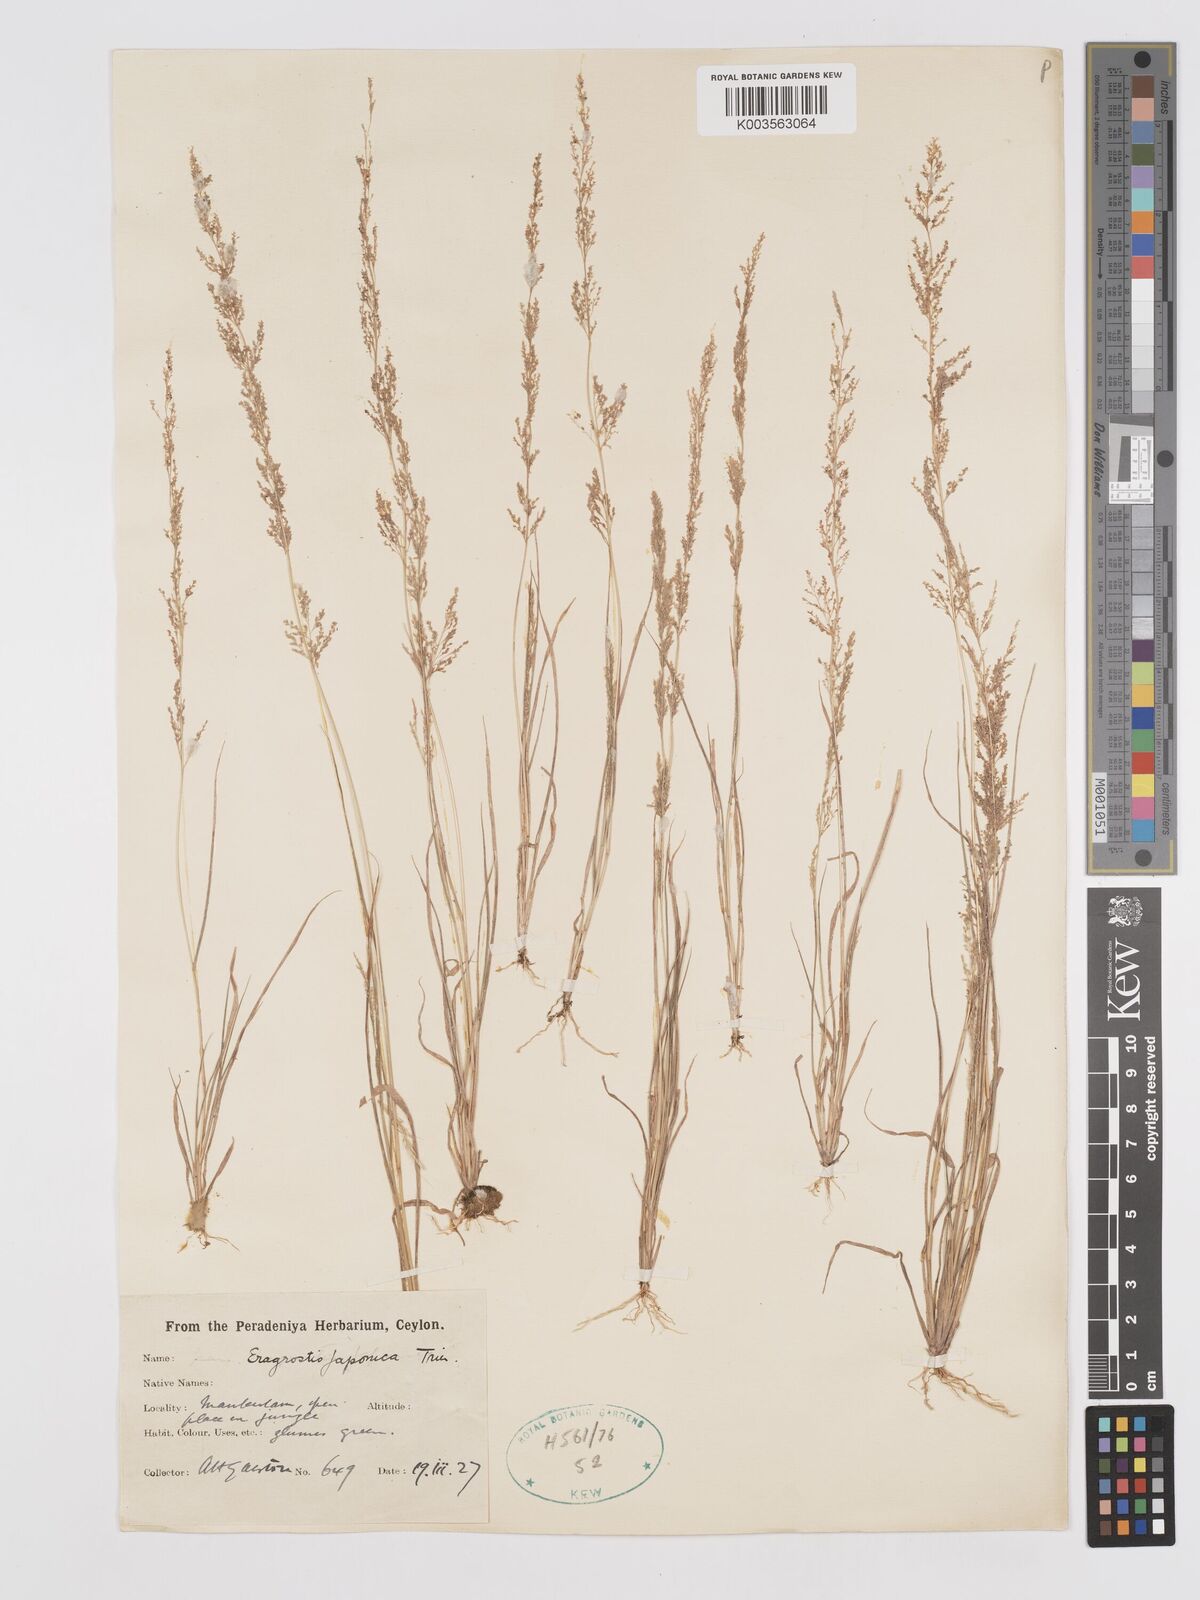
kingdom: Plantae
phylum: Tracheophyta
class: Liliopsida
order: Poales
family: Poaceae
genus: Eragrostis
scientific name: Eragrostis japonica
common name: Pond lovegrass
